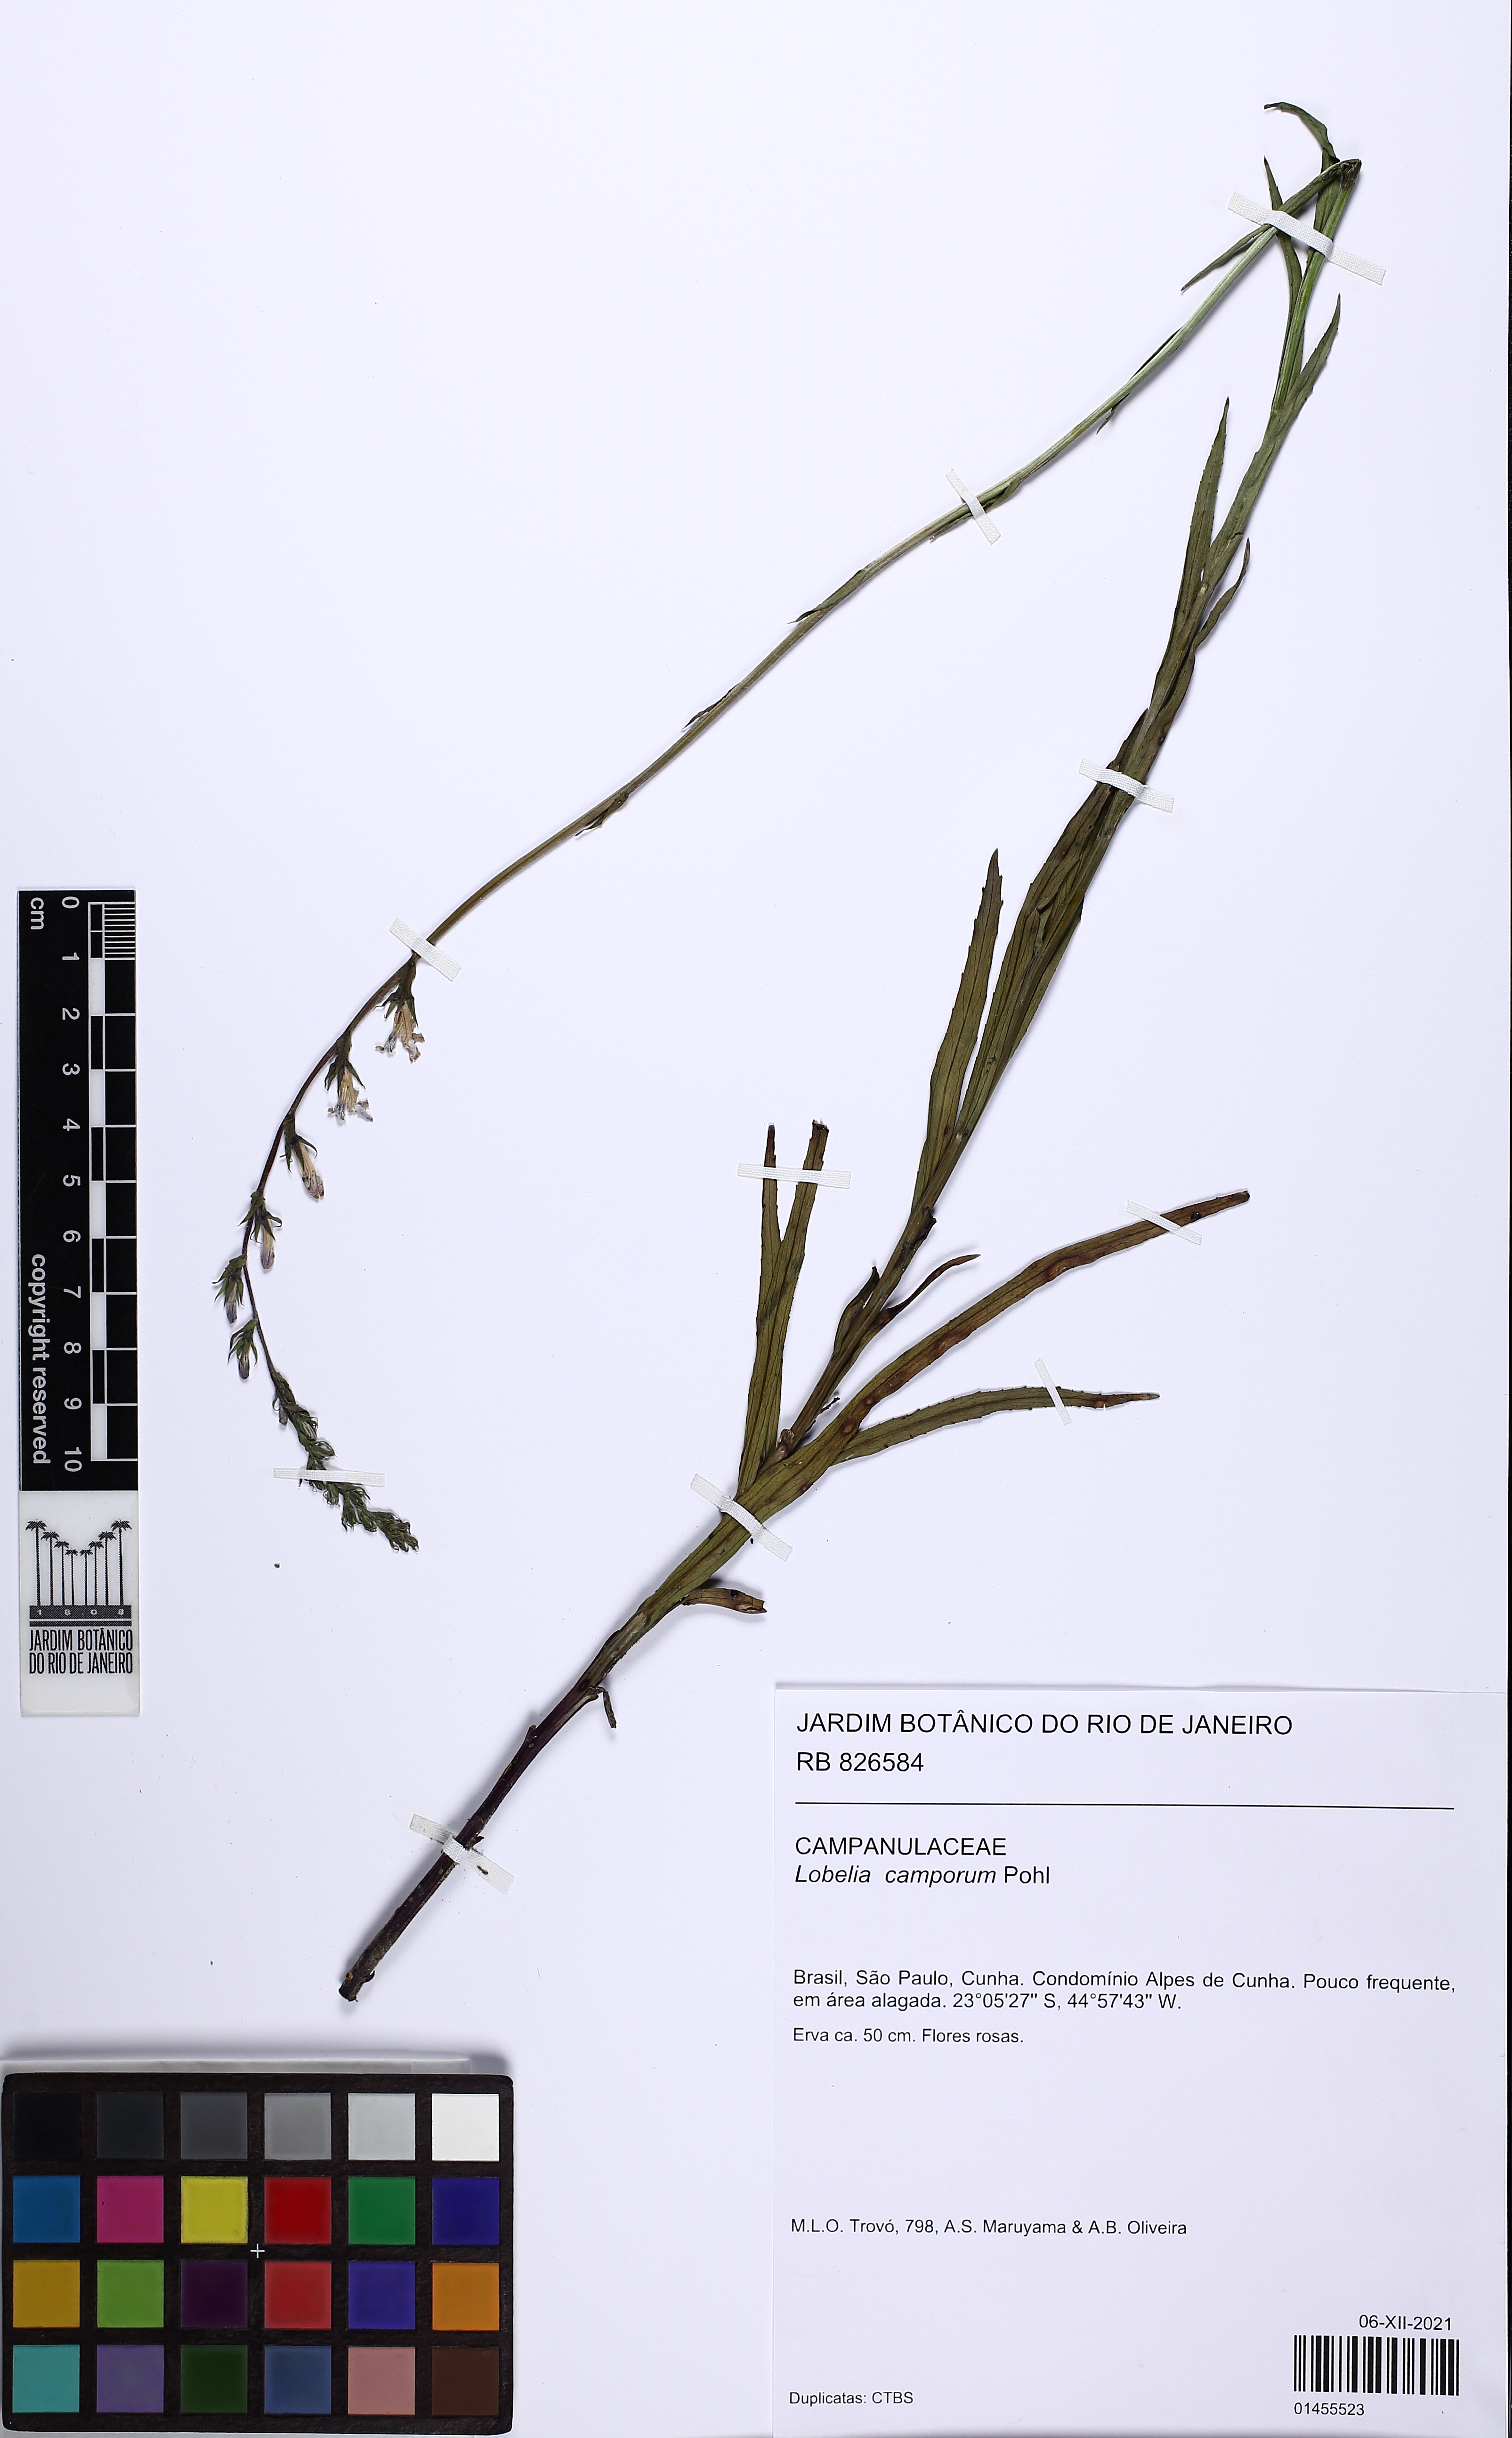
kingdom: Plantae
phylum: Tracheophyta
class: Magnoliopsida
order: Asterales
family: Campanulaceae
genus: Lobelia
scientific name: Lobelia camporum
